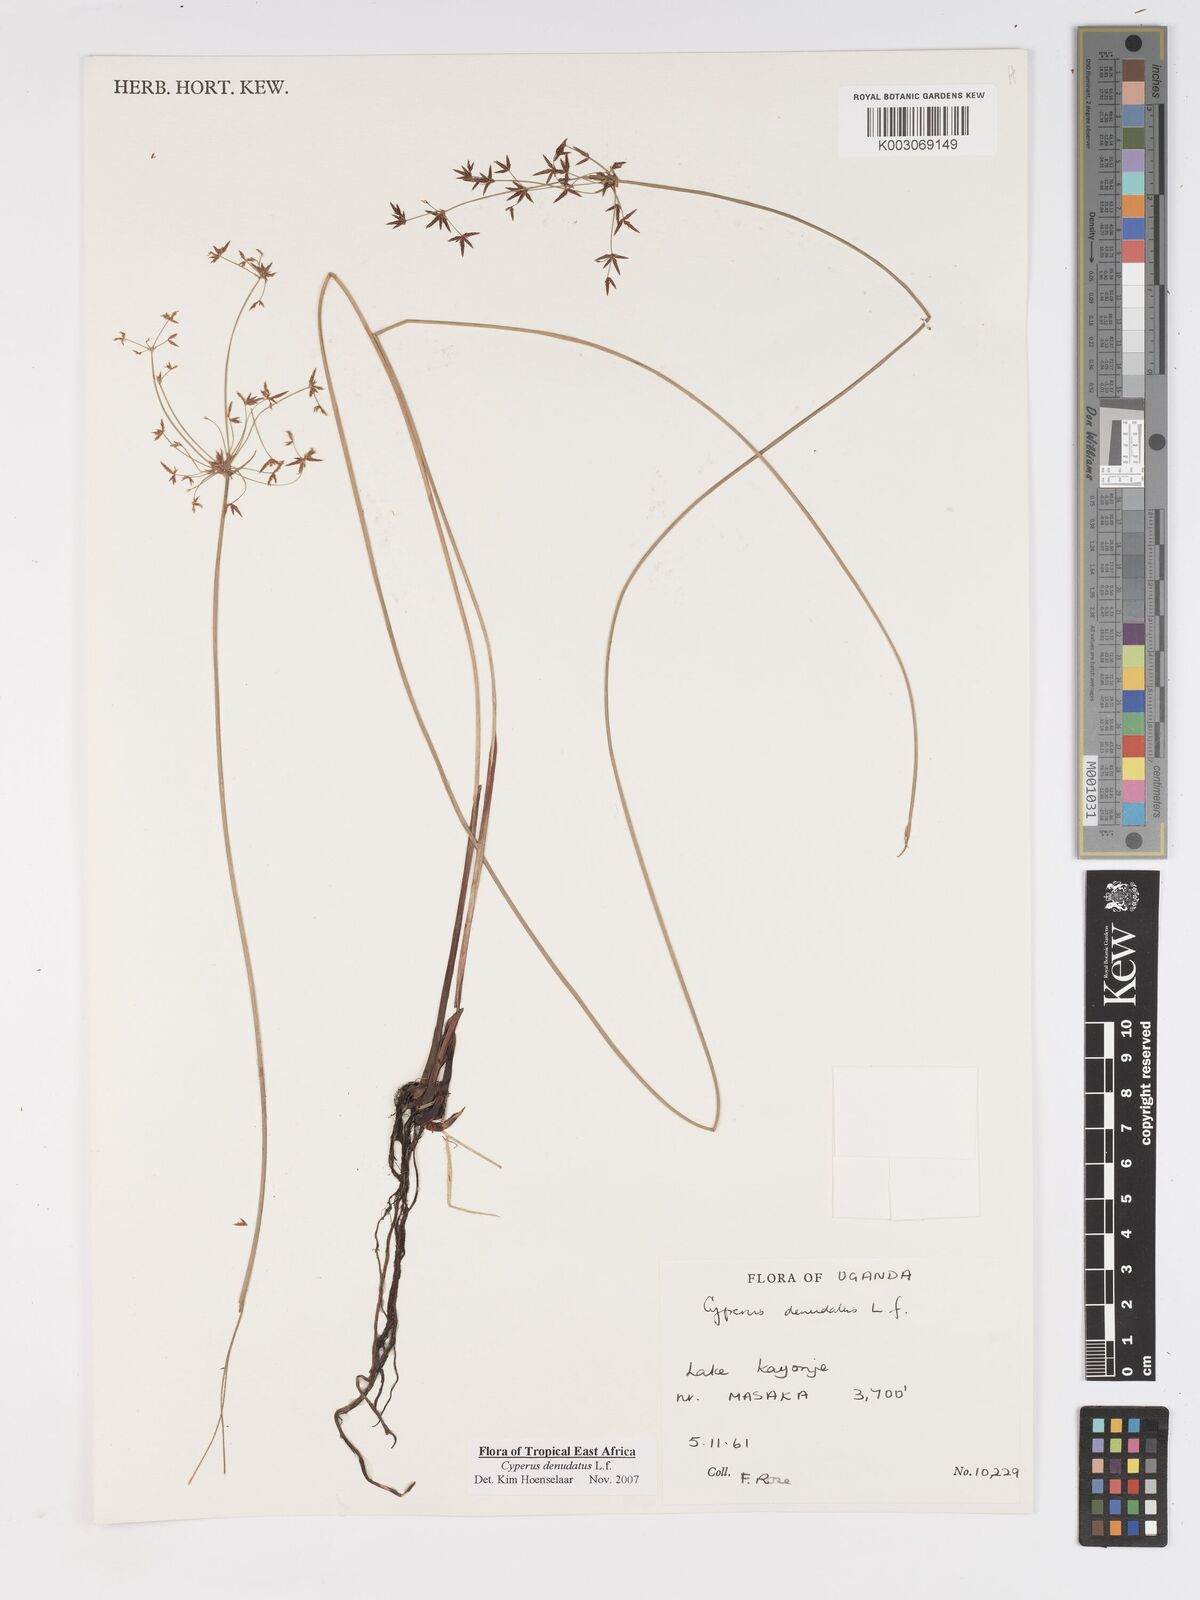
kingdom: Plantae
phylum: Tracheophyta
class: Liliopsida
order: Poales
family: Cyperaceae
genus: Cyperus
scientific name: Cyperus denudatus
